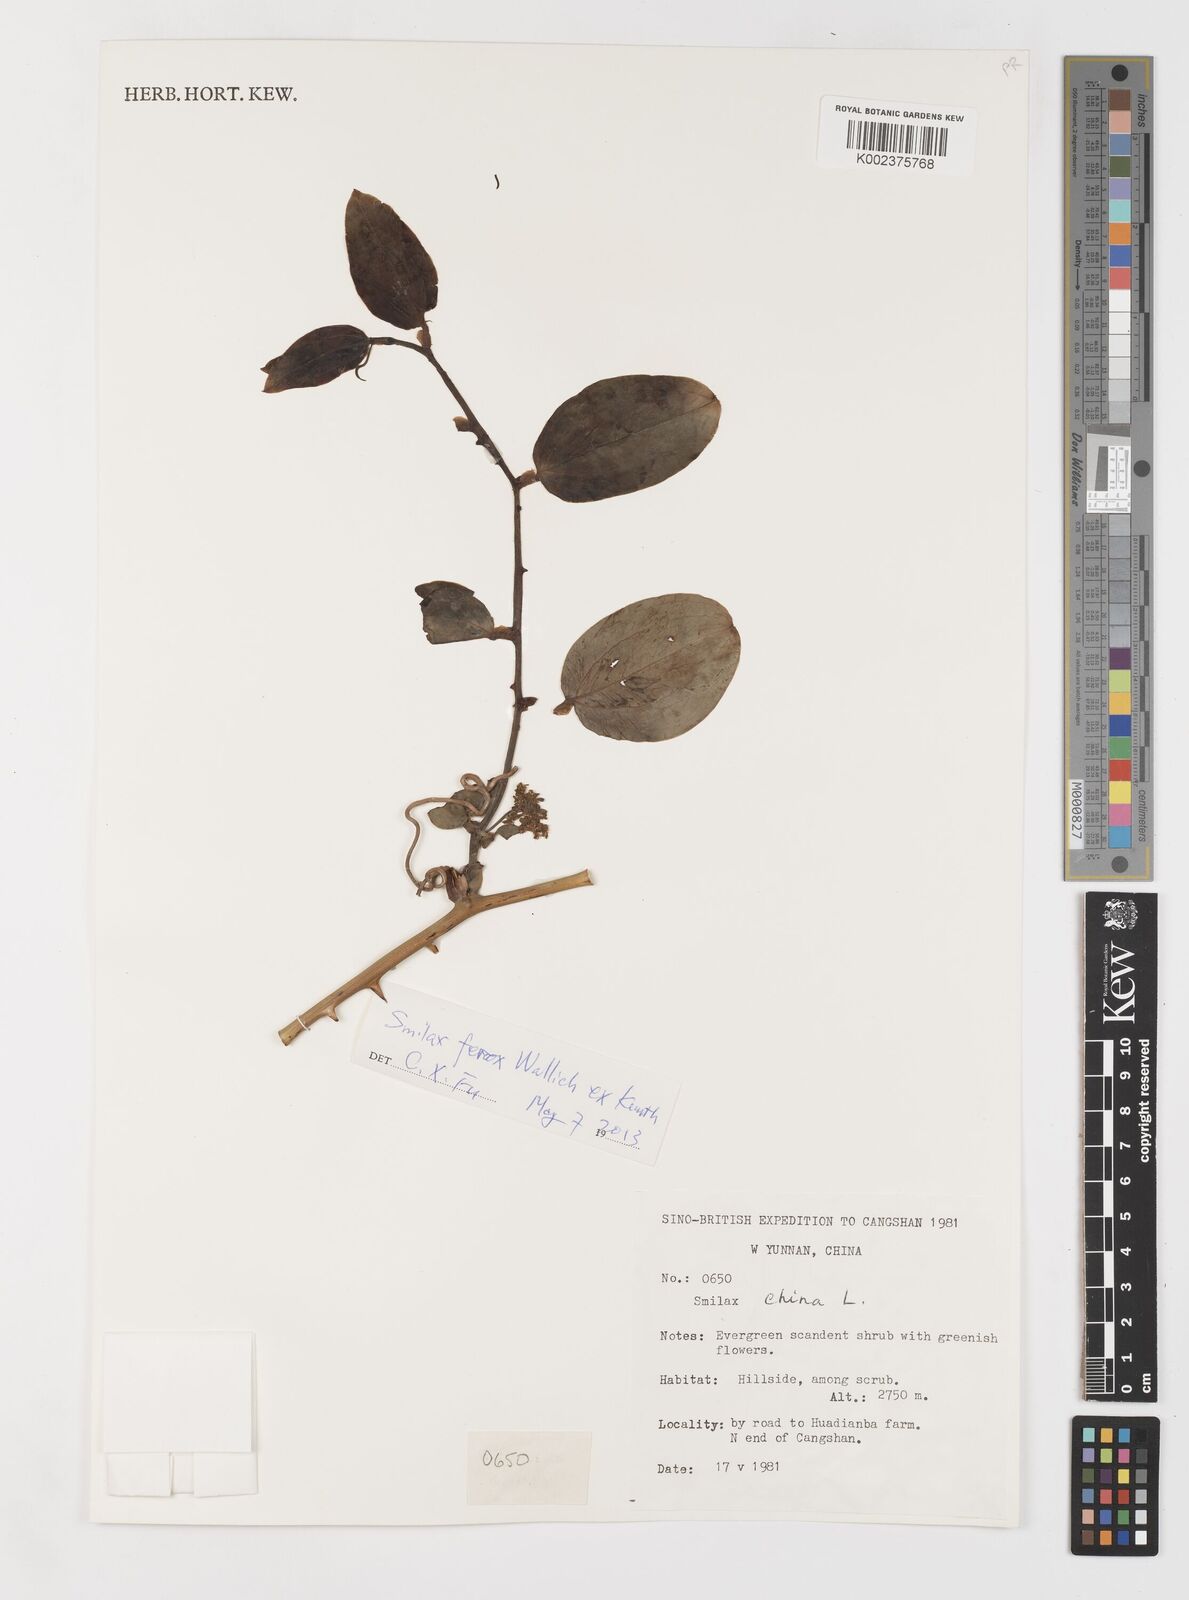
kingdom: Plantae
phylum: Tracheophyta
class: Liliopsida
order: Liliales
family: Smilacaceae
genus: Smilax
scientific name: Smilax china
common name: Chinaroot
